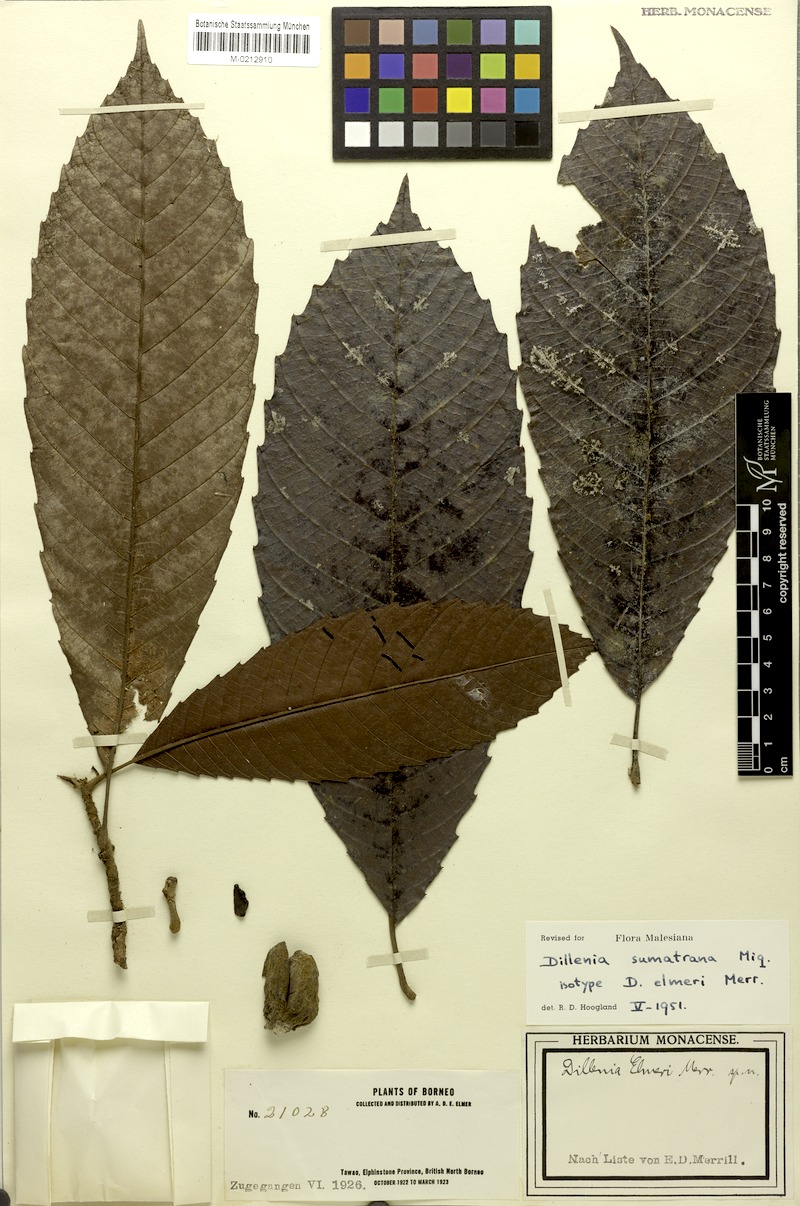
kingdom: Plantae
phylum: Tracheophyta
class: Magnoliopsida
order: Dilleniales
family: Dilleniaceae
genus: Dillenia
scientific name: Dillenia sumatrana
